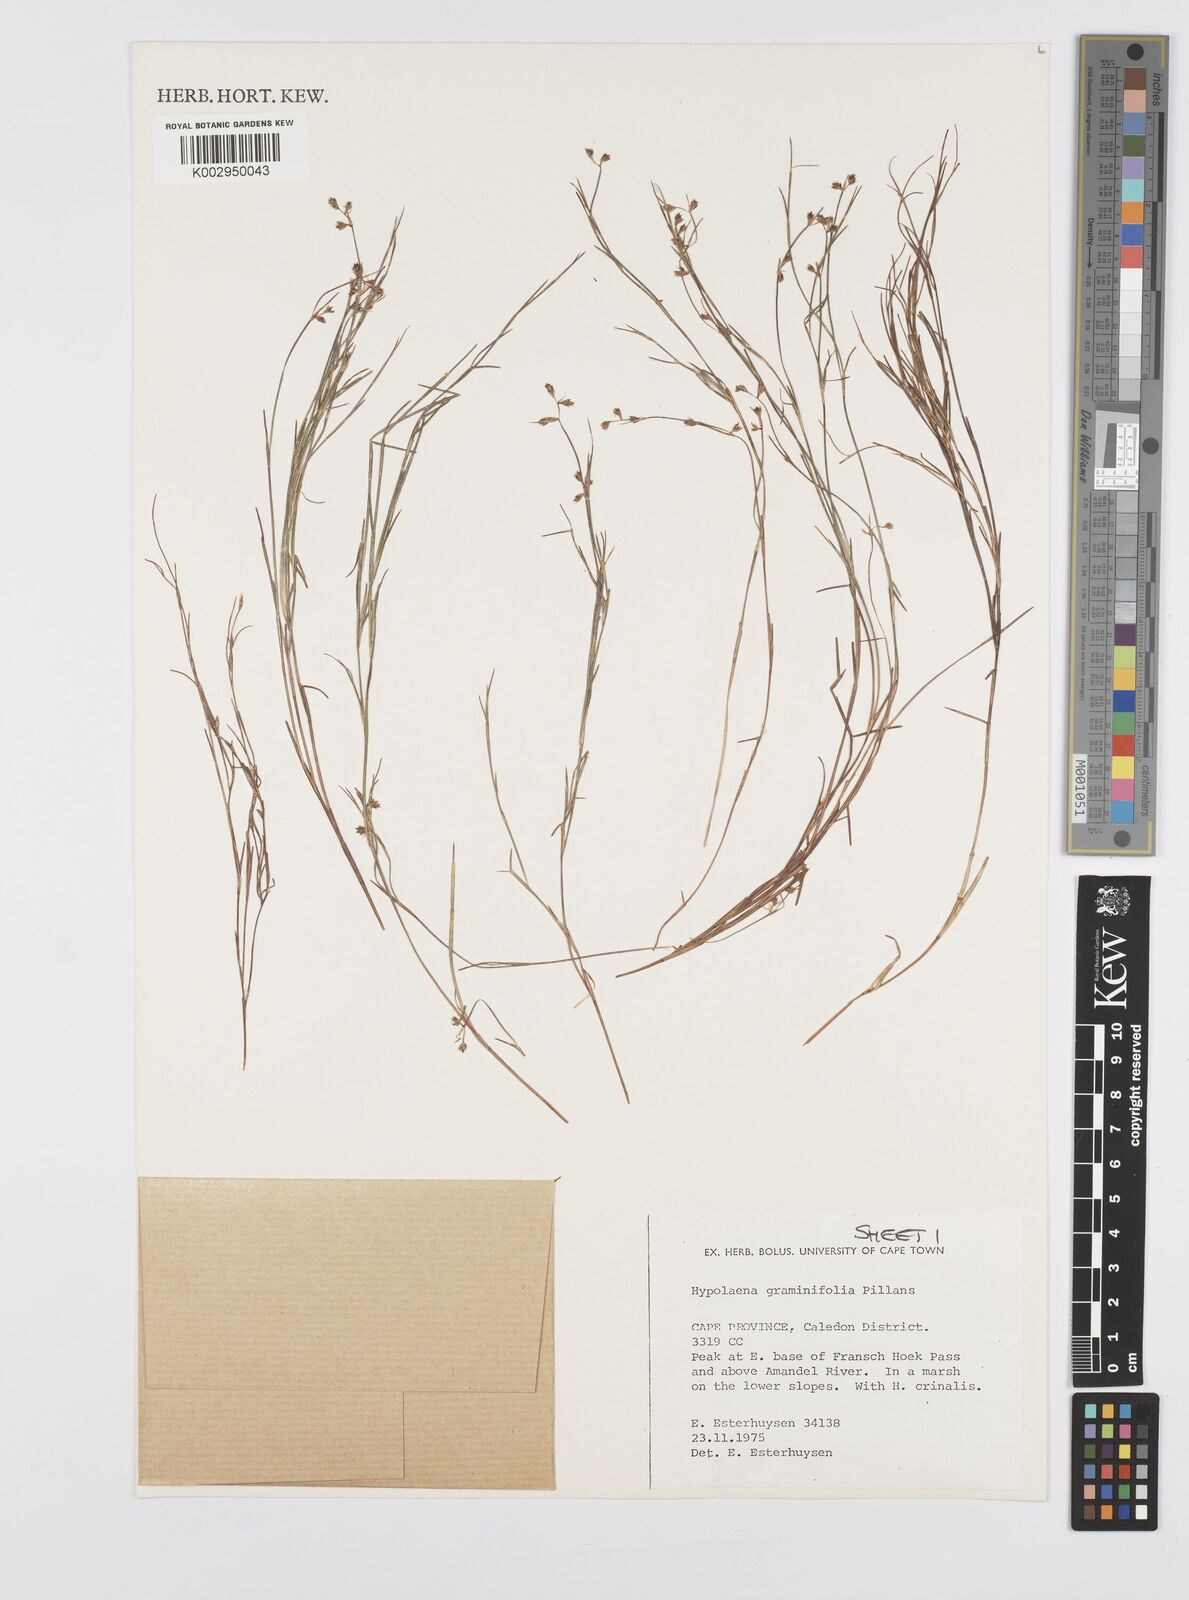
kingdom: Plantae
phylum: Tracheophyta
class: Liliopsida
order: Poales
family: Restionaceae
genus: Anthochortus
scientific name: Anthochortus graminifolius
